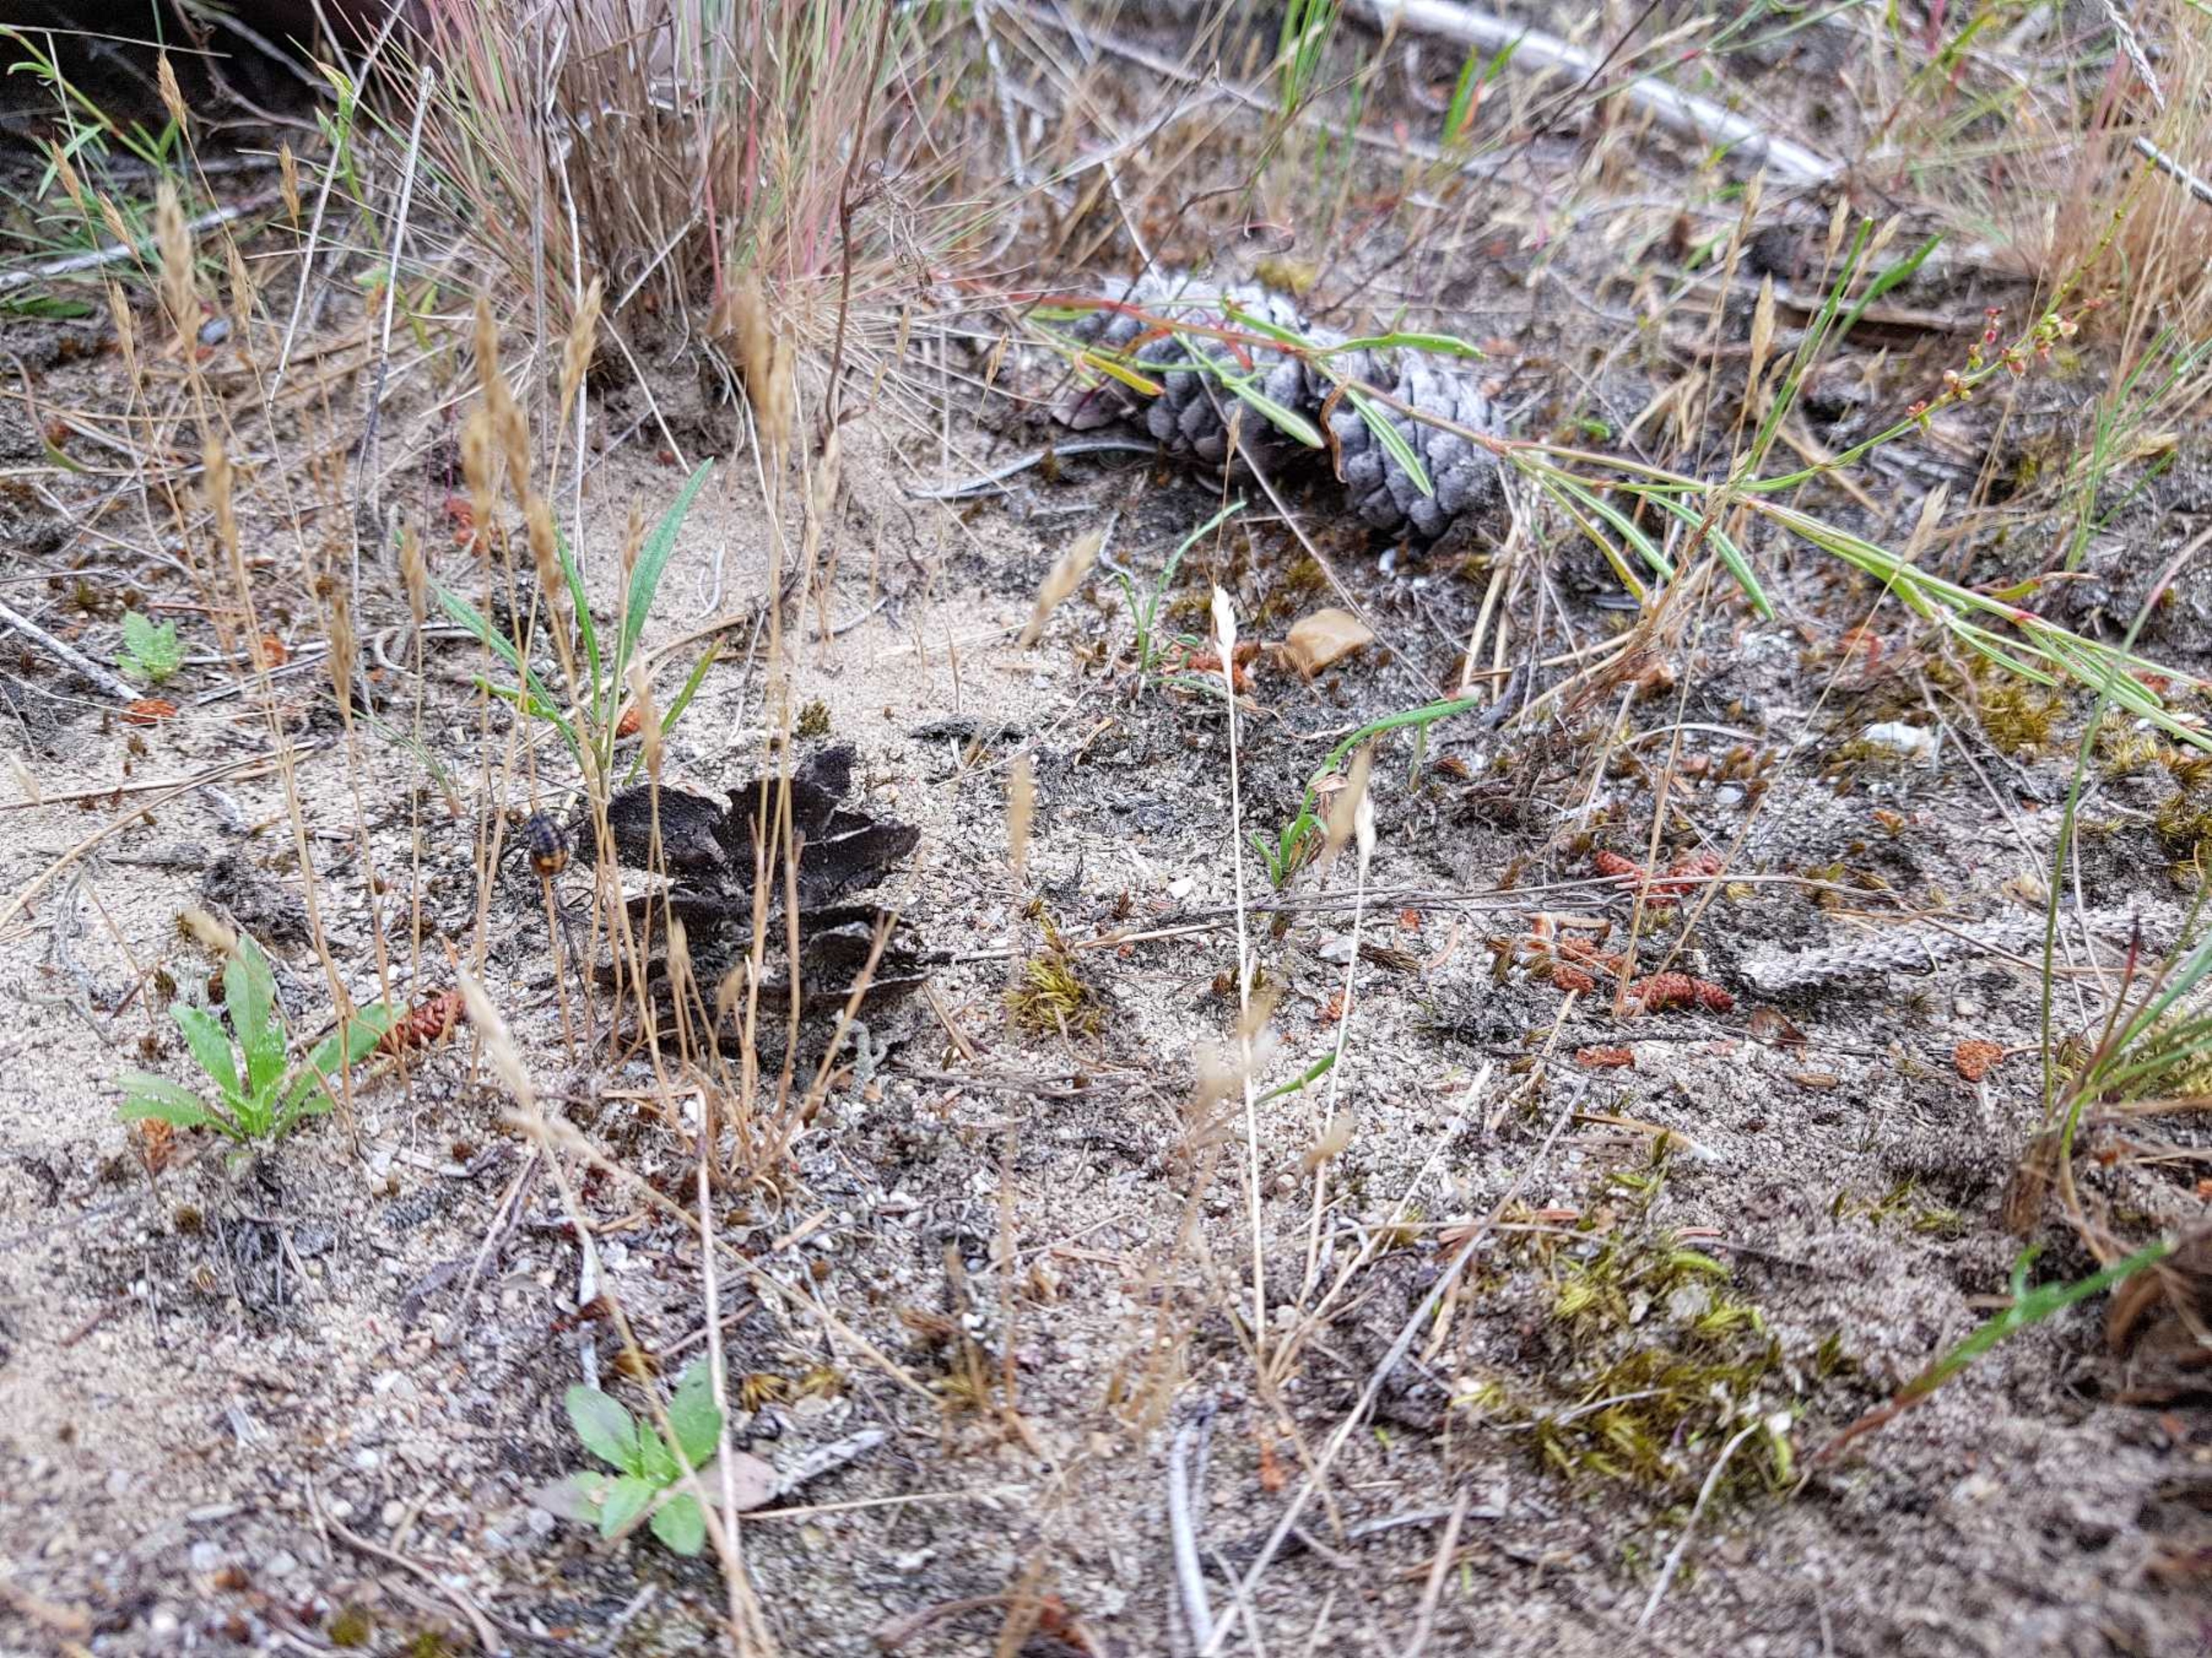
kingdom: Plantae
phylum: Tracheophyta
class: Liliopsida
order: Poales
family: Poaceae
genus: Aira
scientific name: Aira praecox
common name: Tidlig dværgbunke
